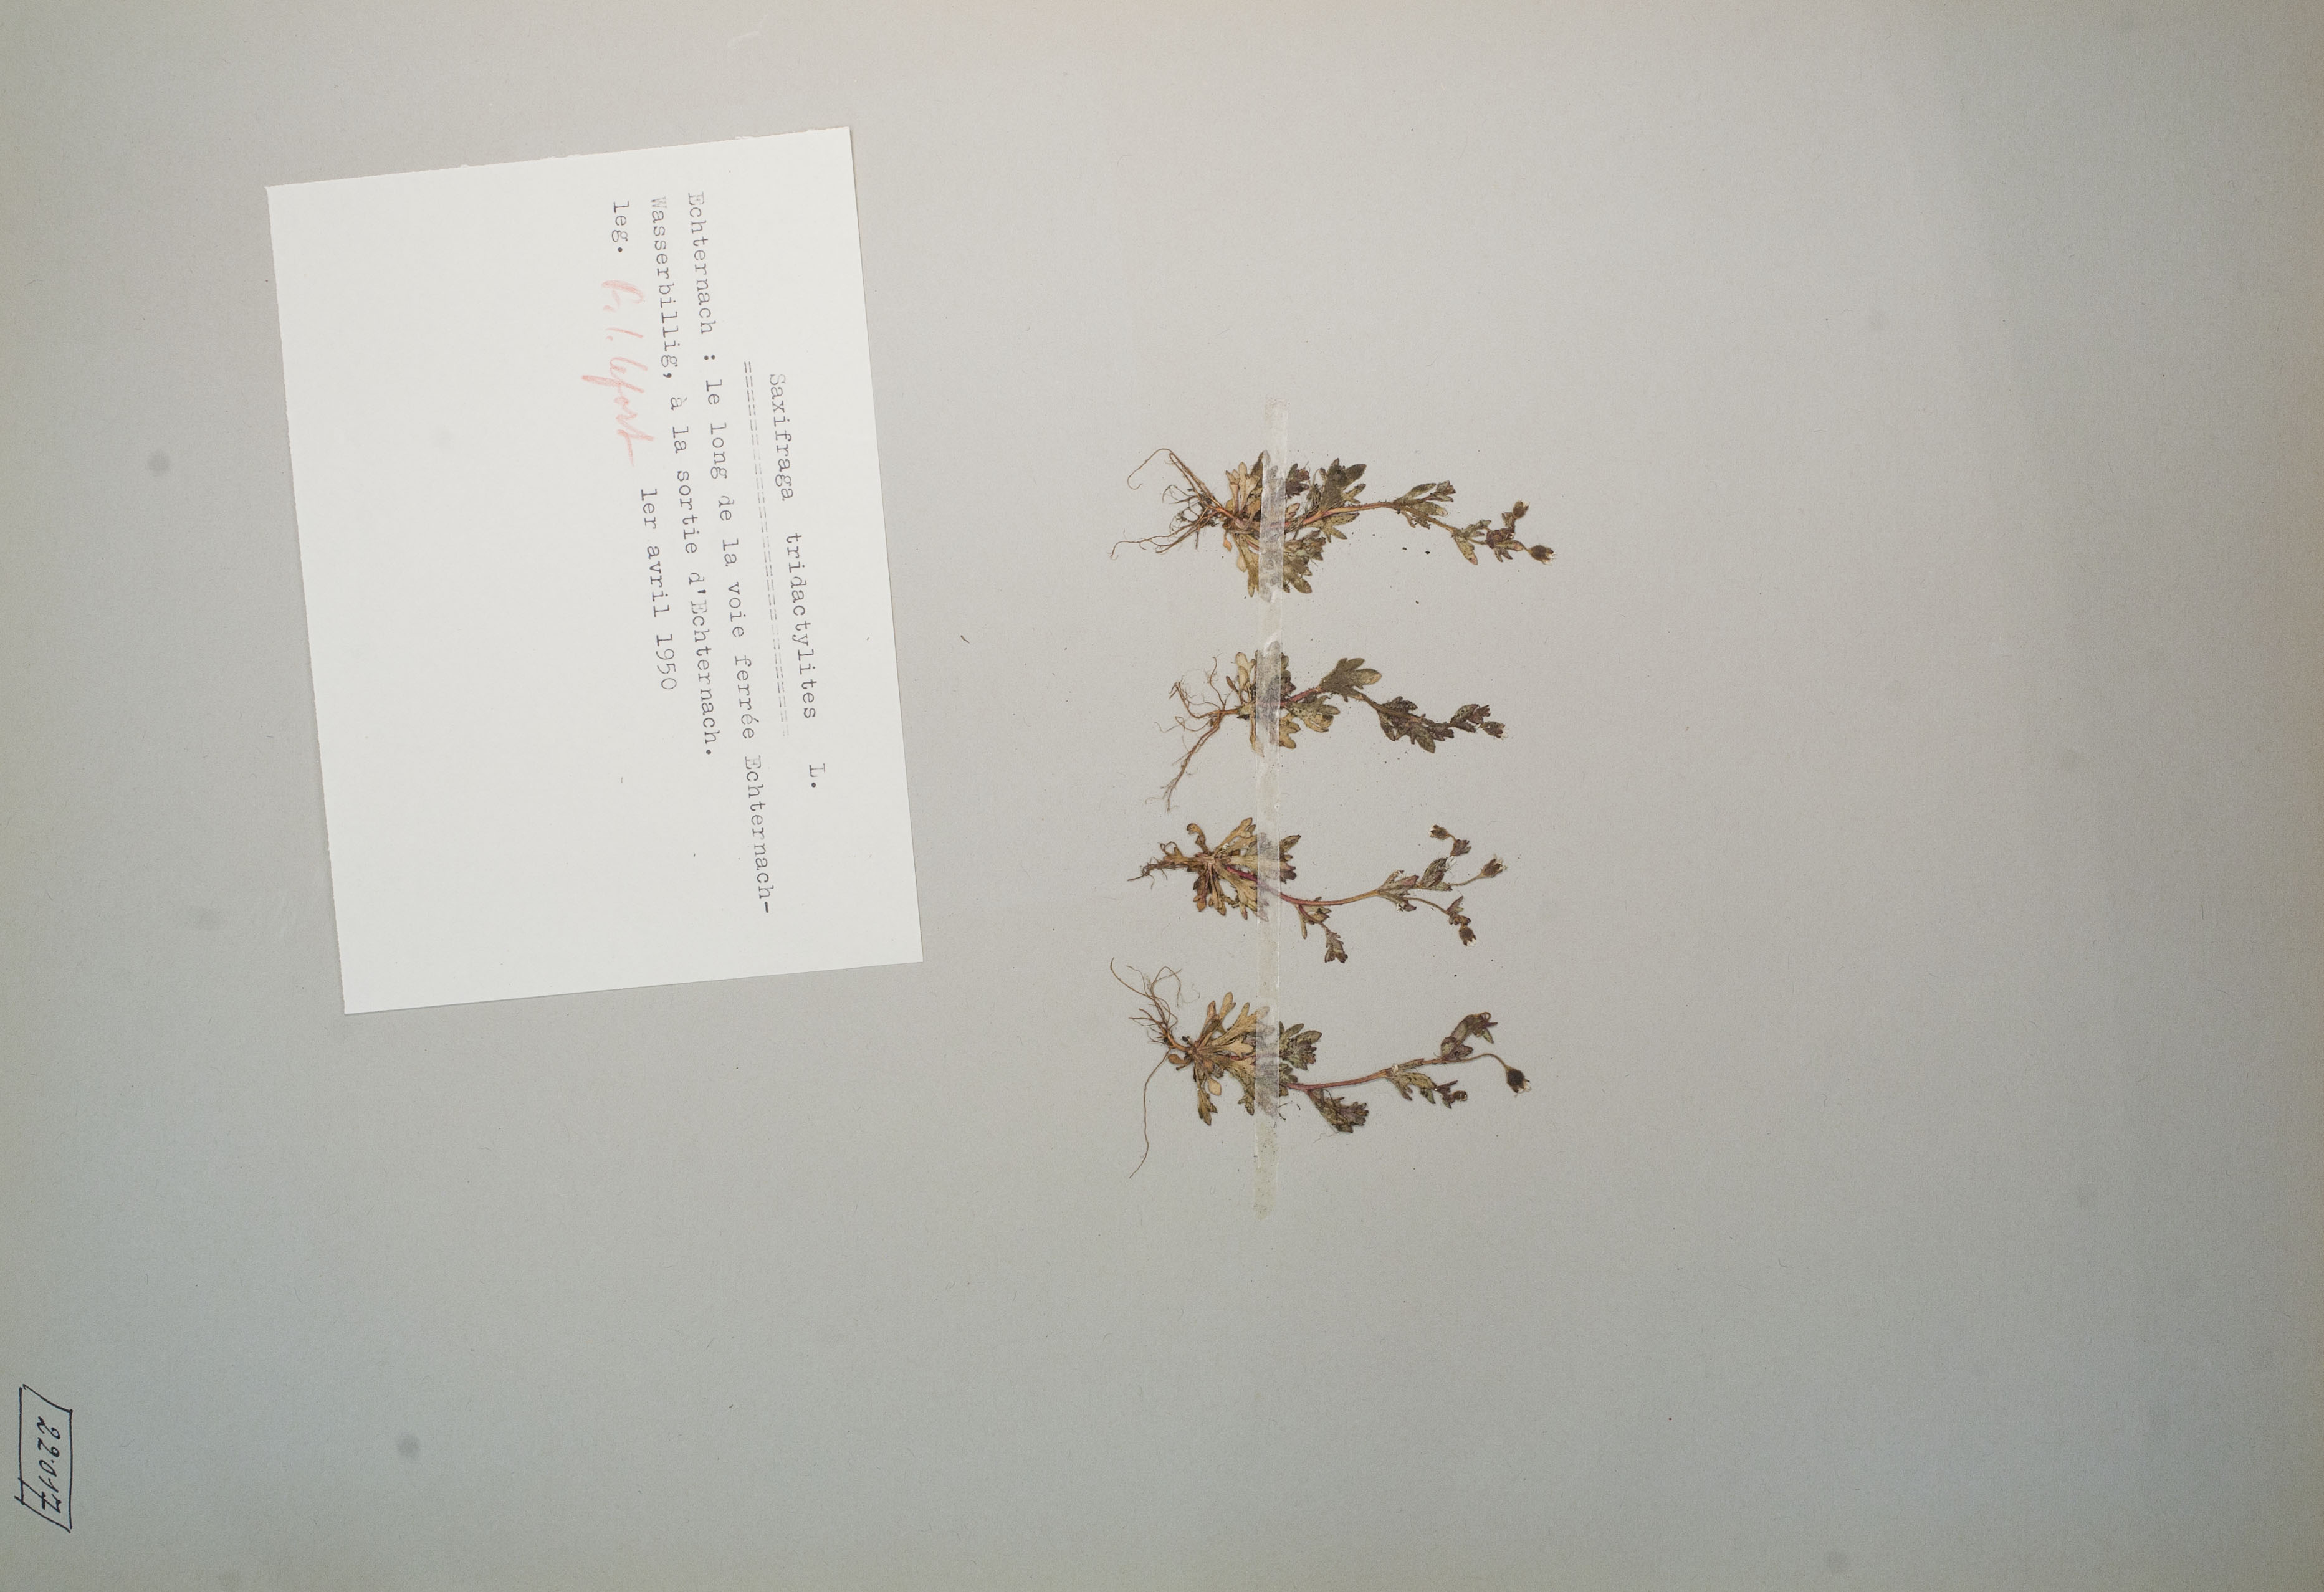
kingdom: Plantae
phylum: Tracheophyta
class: Magnoliopsida
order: Saxifragales
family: Saxifragaceae
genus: Saxifraga
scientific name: Saxifraga tridactylites
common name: Rue-leaved saxifrage
